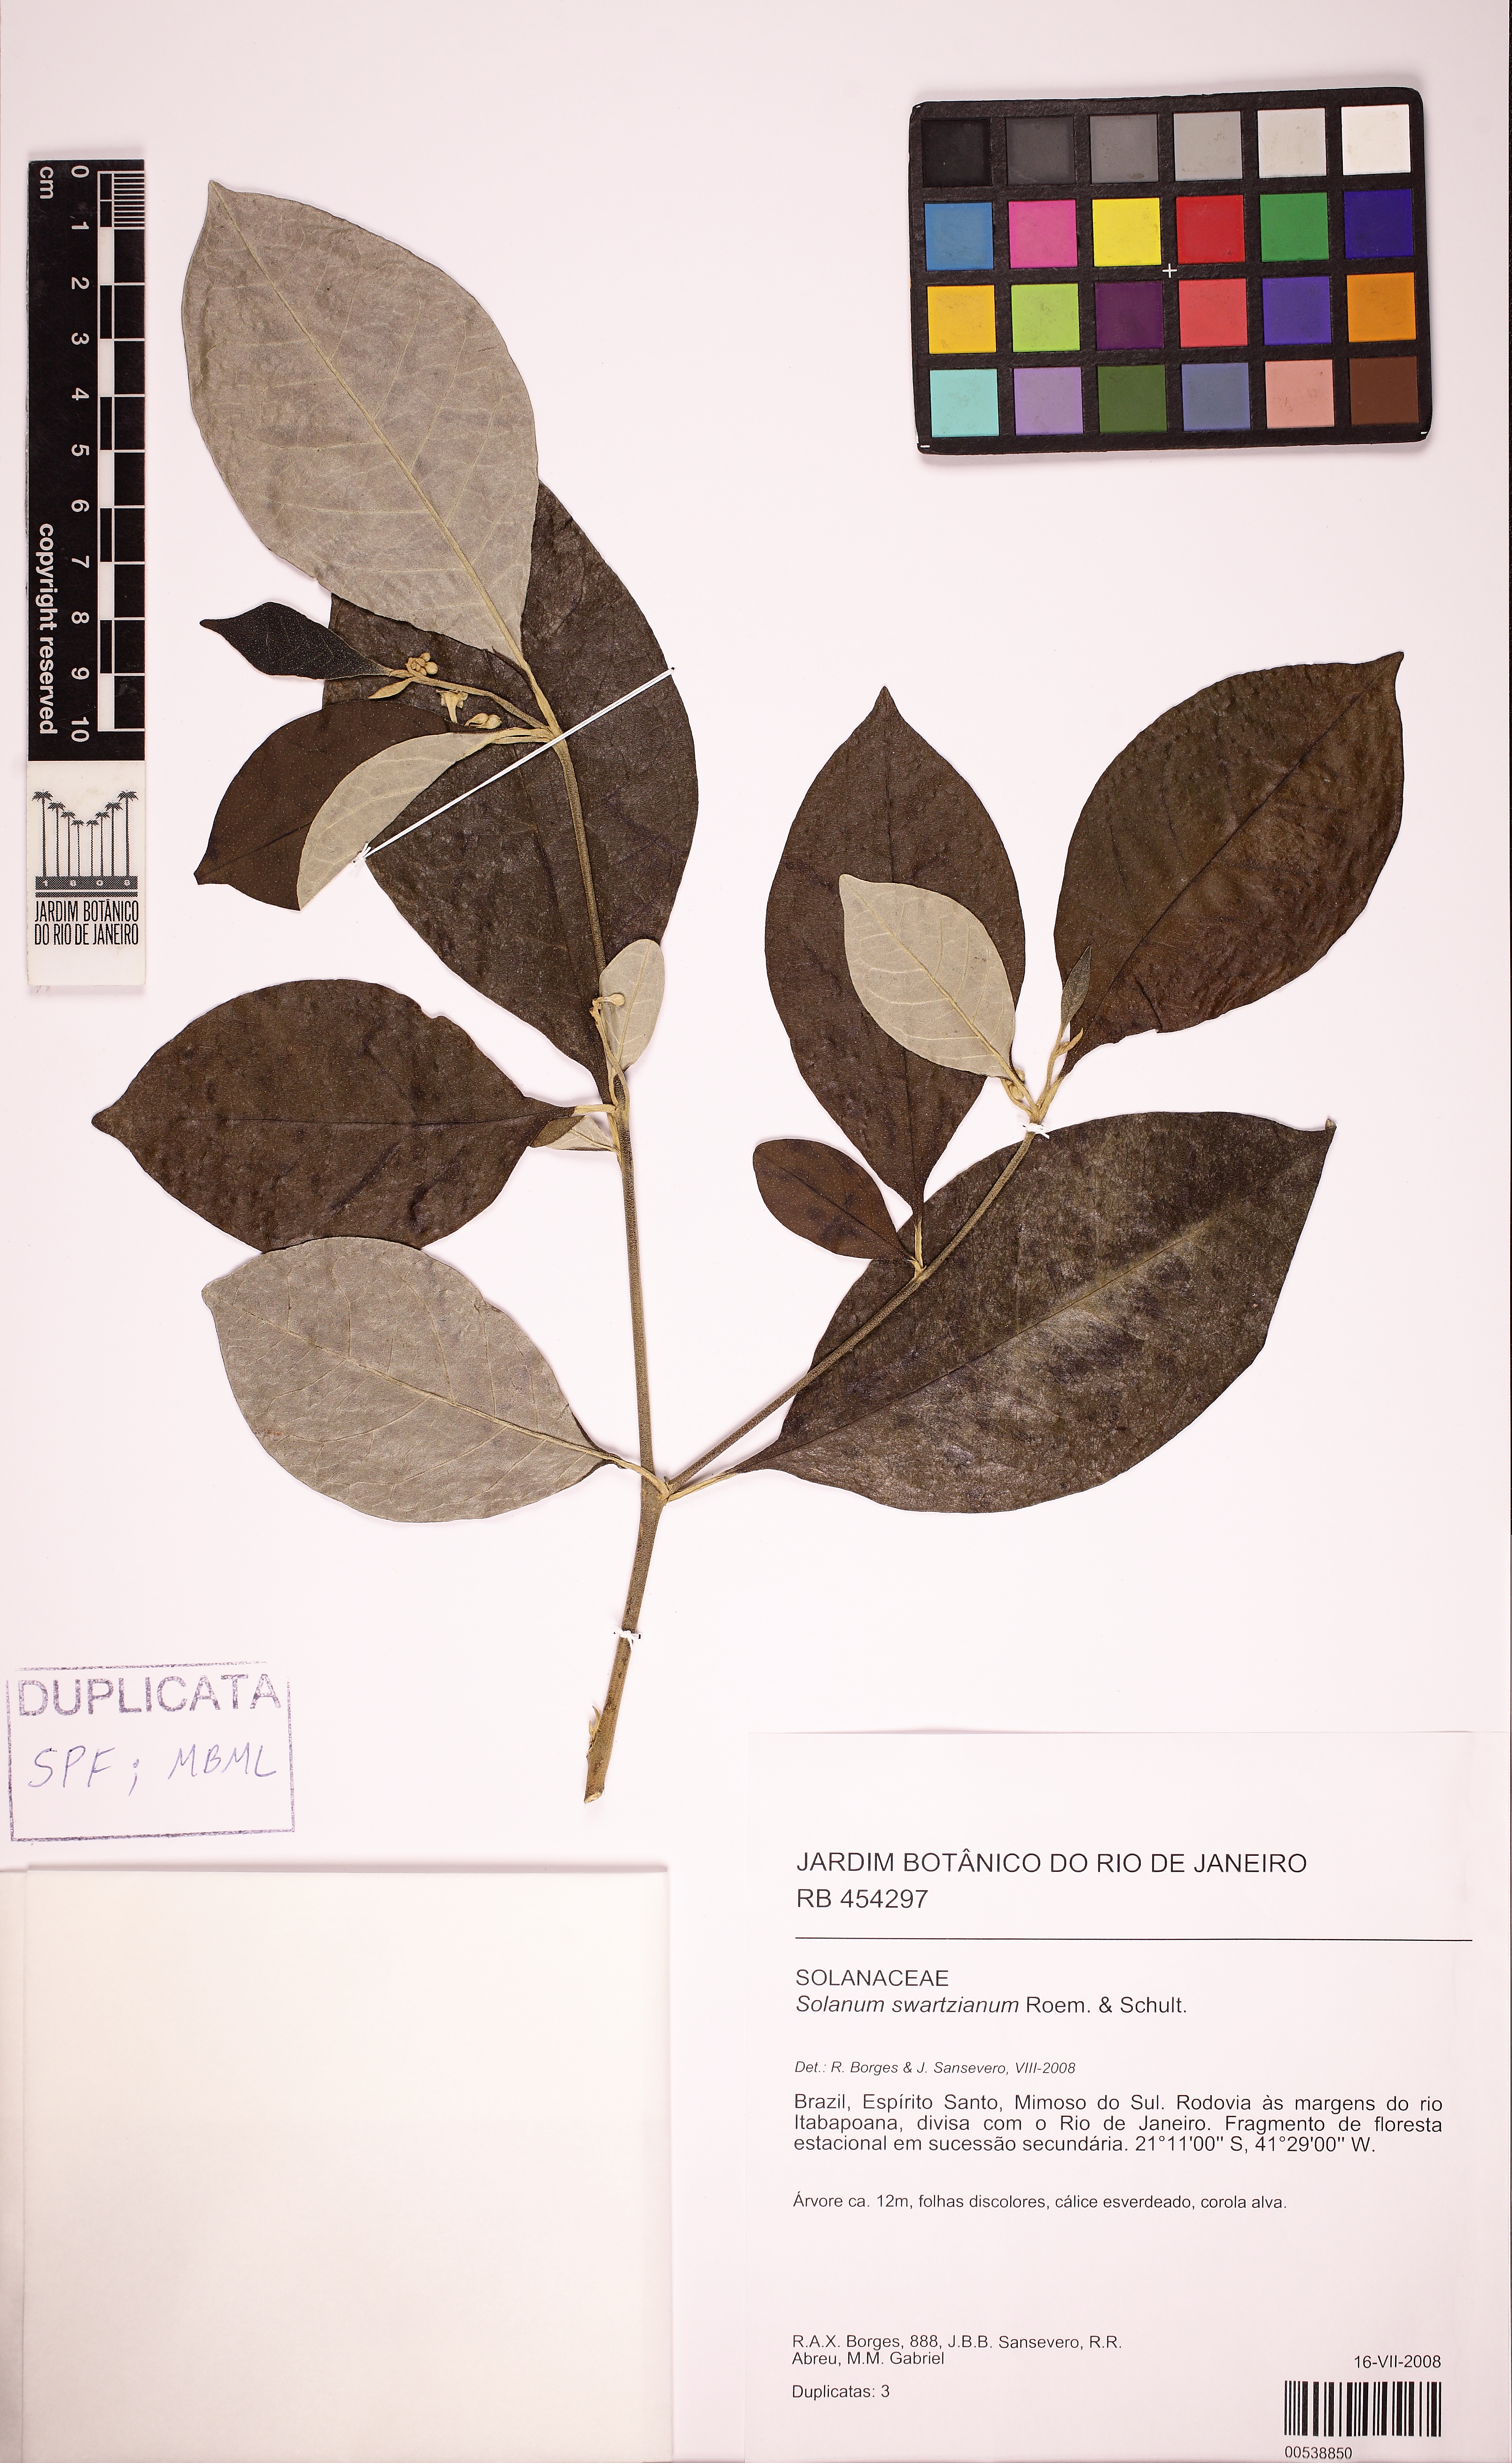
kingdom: Plantae
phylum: Tracheophyta
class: Magnoliopsida
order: Solanales
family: Solanaceae
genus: Solanum
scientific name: Solanum swartzianum
